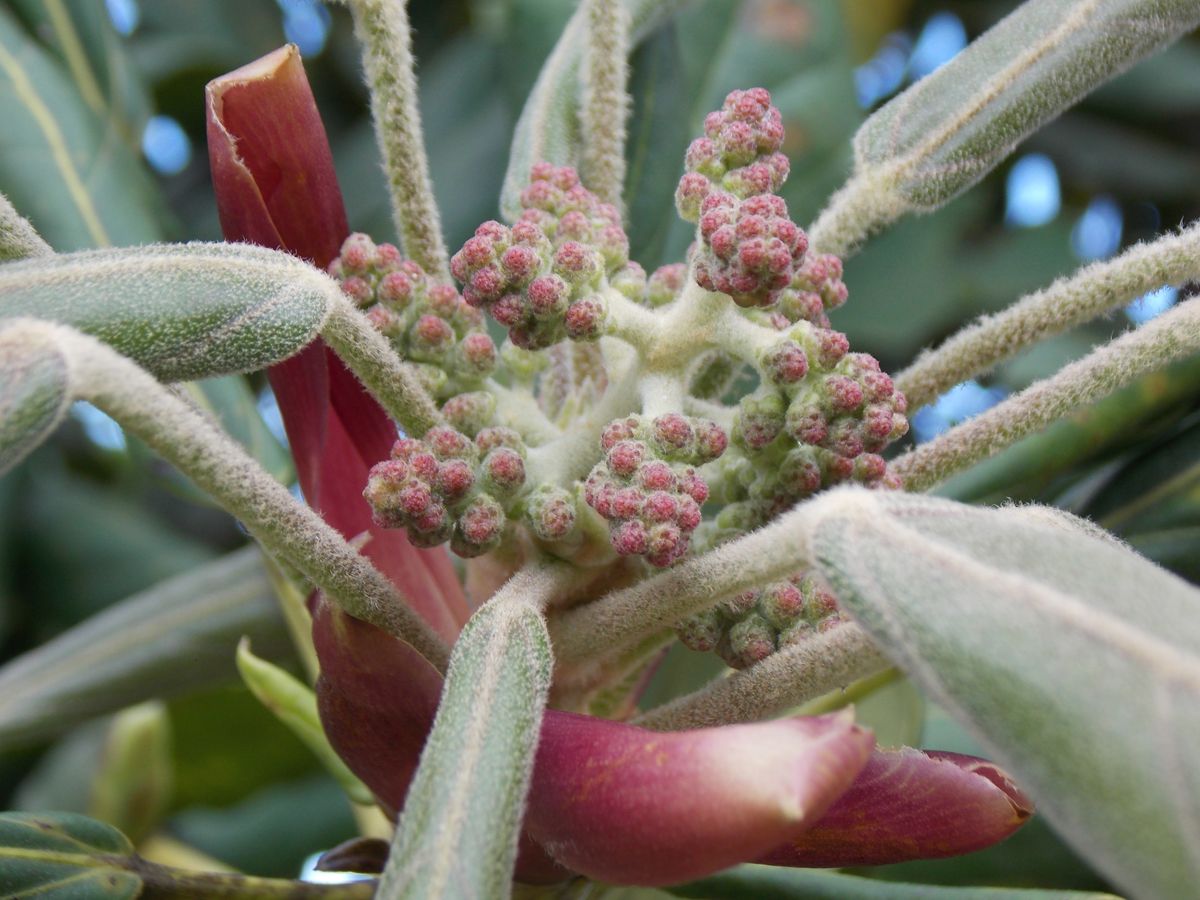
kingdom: Plantae
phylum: Tracheophyta
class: Magnoliopsida
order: Apiales
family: Araliaceae
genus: Oreopanax
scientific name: Oreopanax oerstedianus
